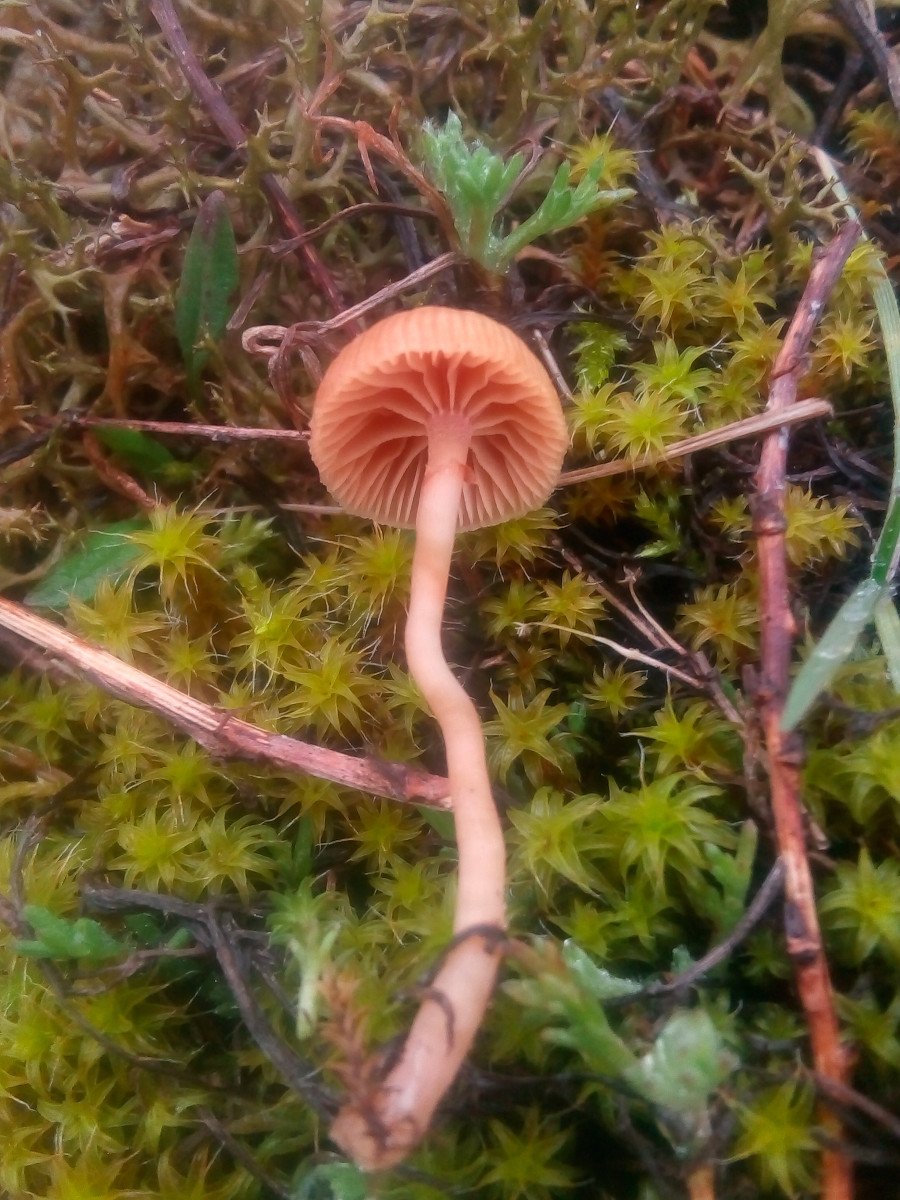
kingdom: Fungi
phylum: Basidiomycota
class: Agaricomycetes
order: Agaricales
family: Tubariaceae
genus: Tubaria
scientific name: Tubaria furfuracea
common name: kliddet fnughat
